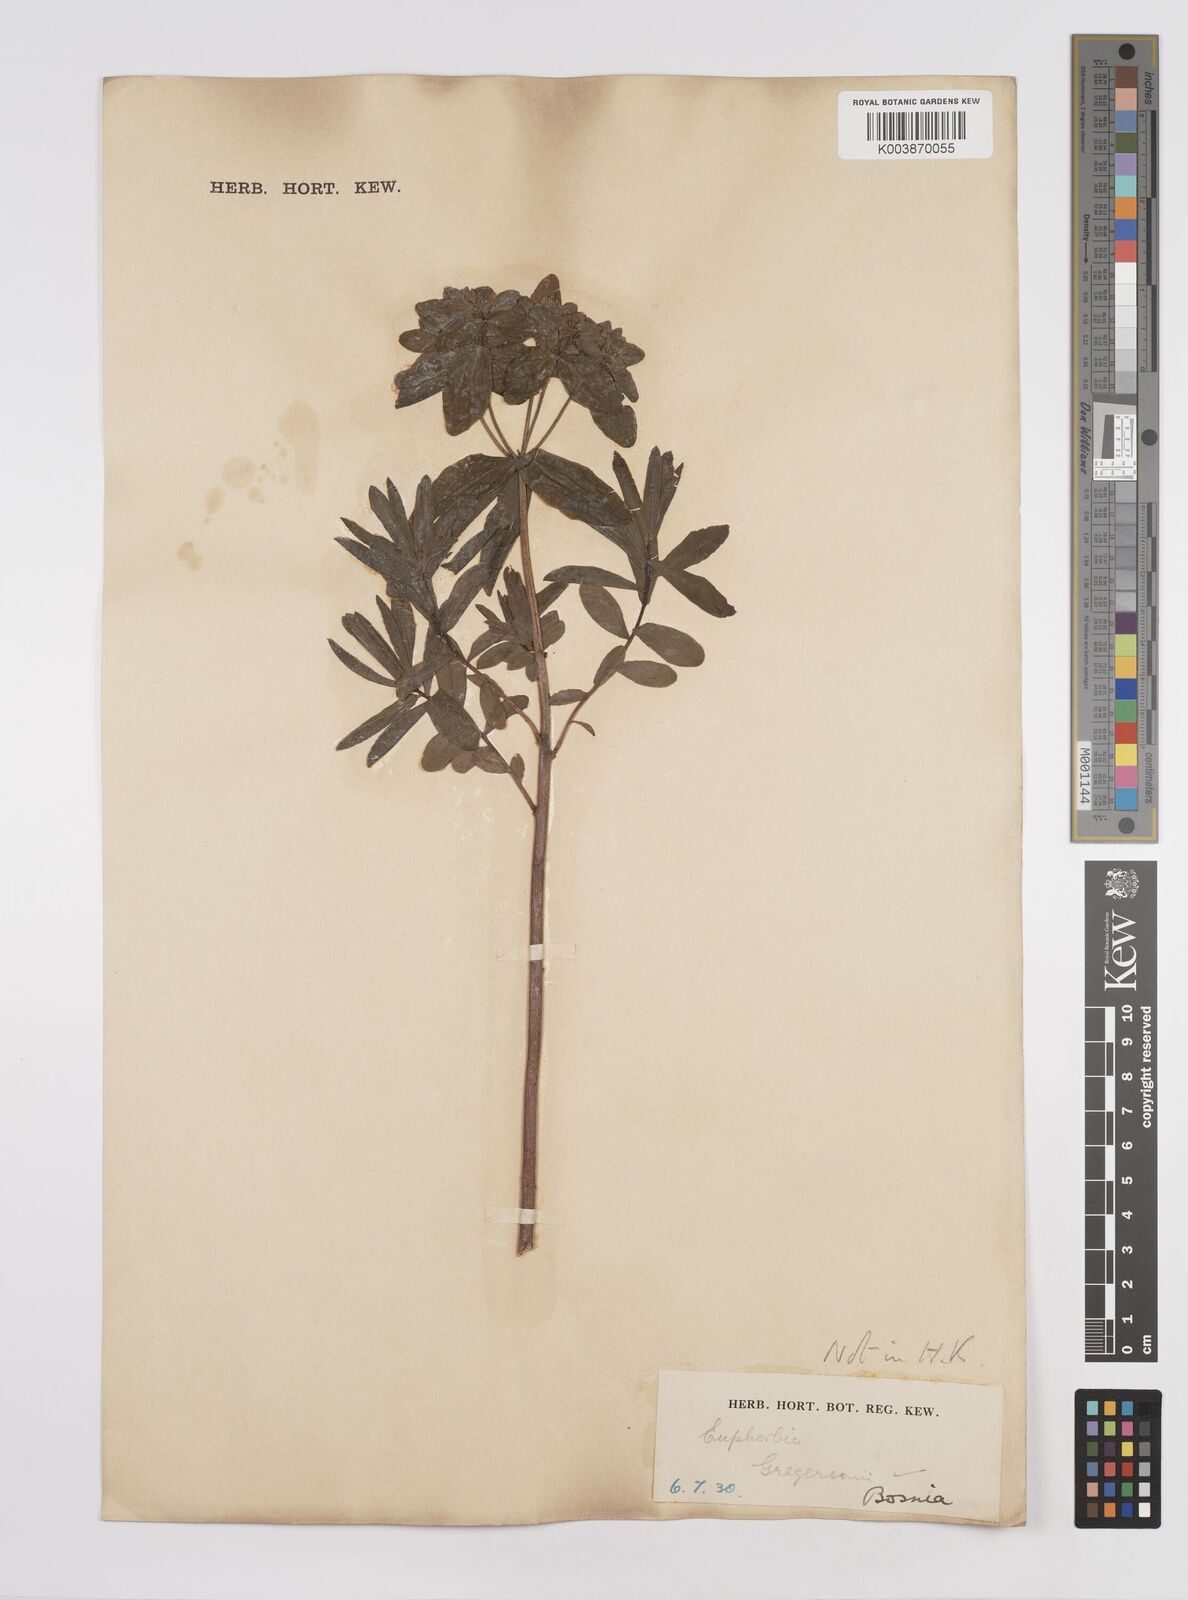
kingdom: Plantae
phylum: Tracheophyta
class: Magnoliopsida
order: Malpighiales
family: Euphorbiaceae
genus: Euphorbia
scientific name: Euphorbia gregersenii
